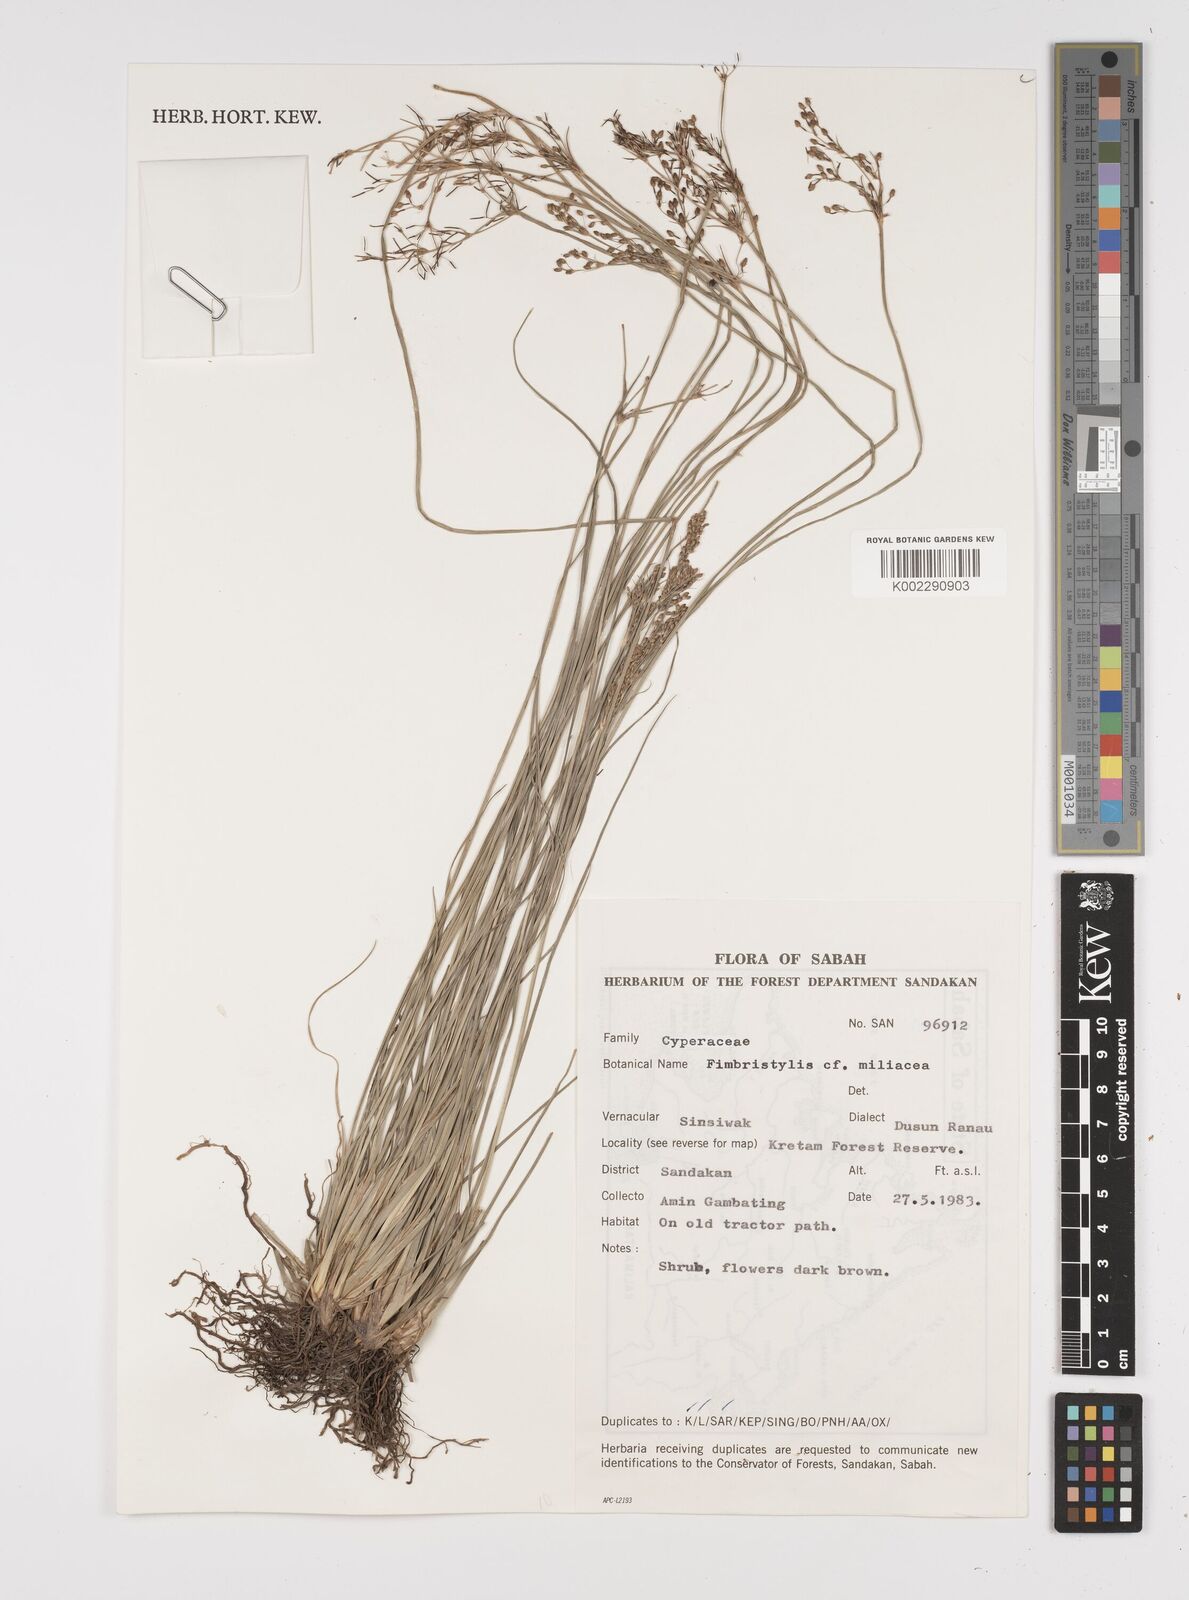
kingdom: Plantae
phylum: Tracheophyta
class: Liliopsida
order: Poales
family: Cyperaceae
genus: Fimbristylis
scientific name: Fimbristylis quinquangularis
